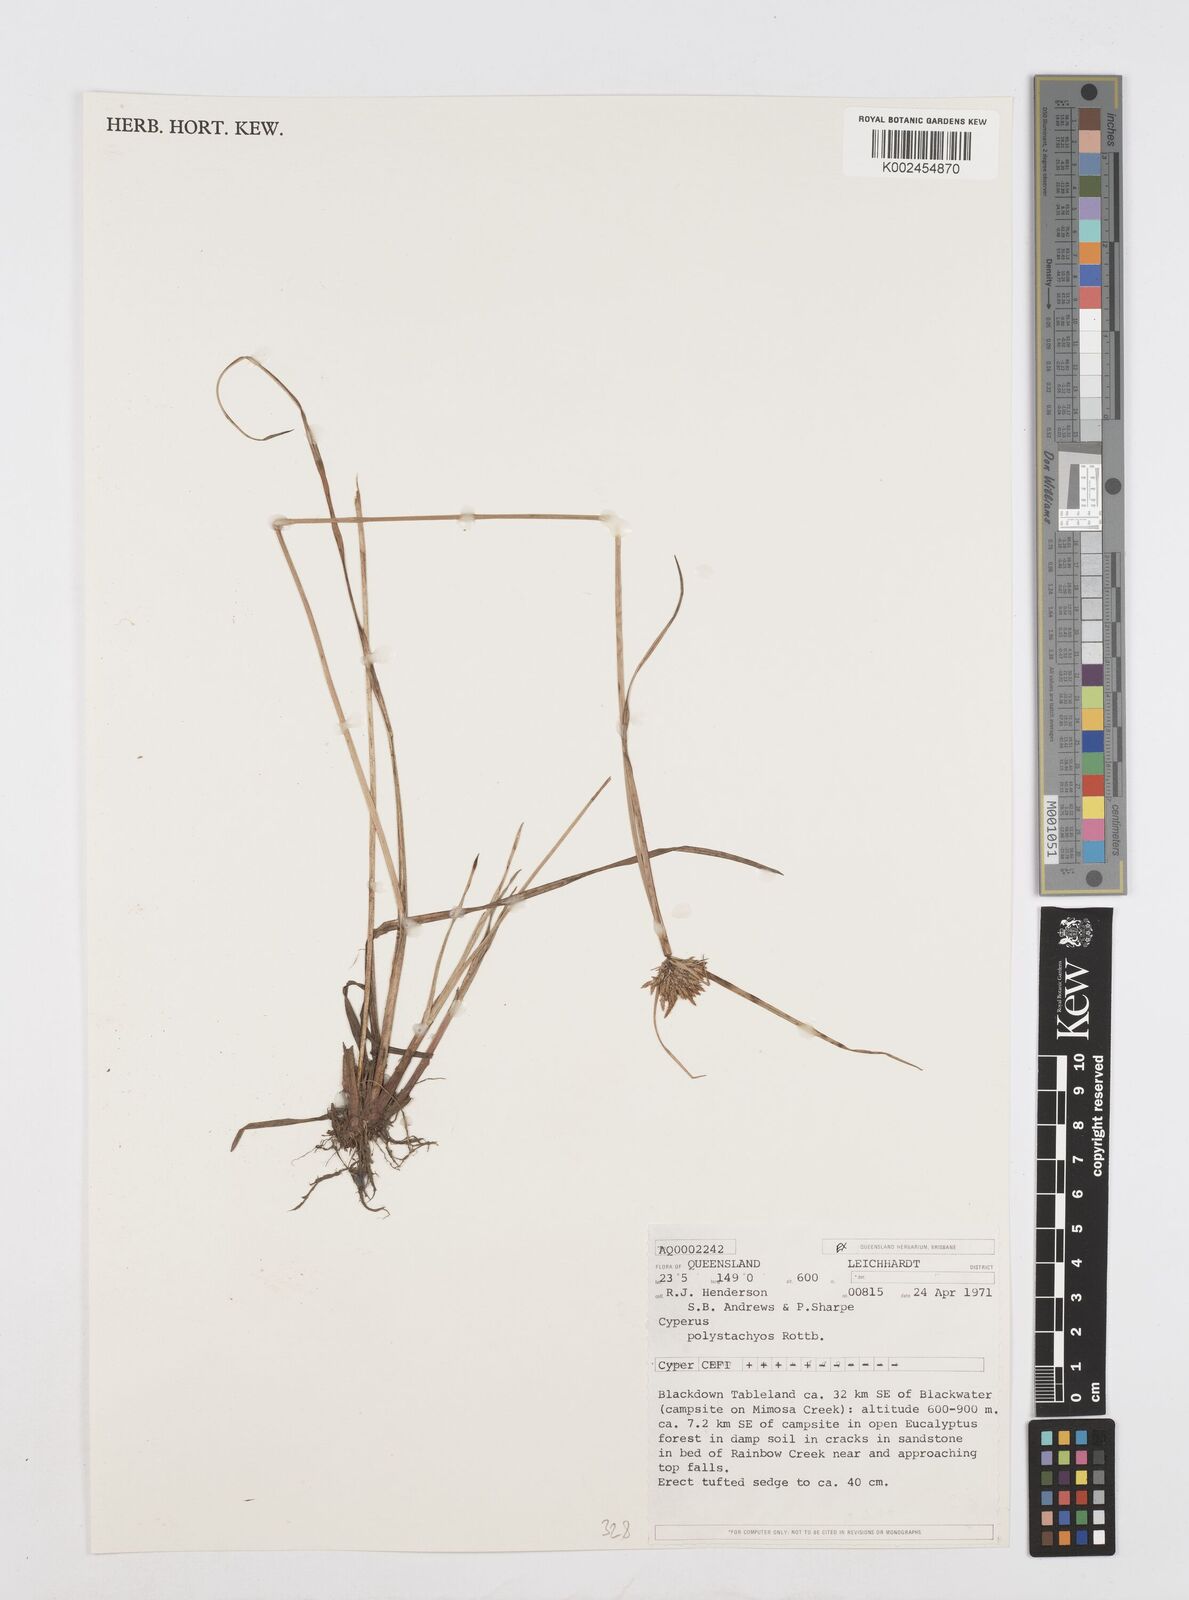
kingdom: Plantae
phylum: Tracheophyta
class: Liliopsida
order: Poales
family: Cyperaceae
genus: Cyperus
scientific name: Cyperus polystachyos
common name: Bunchy flat sedge
